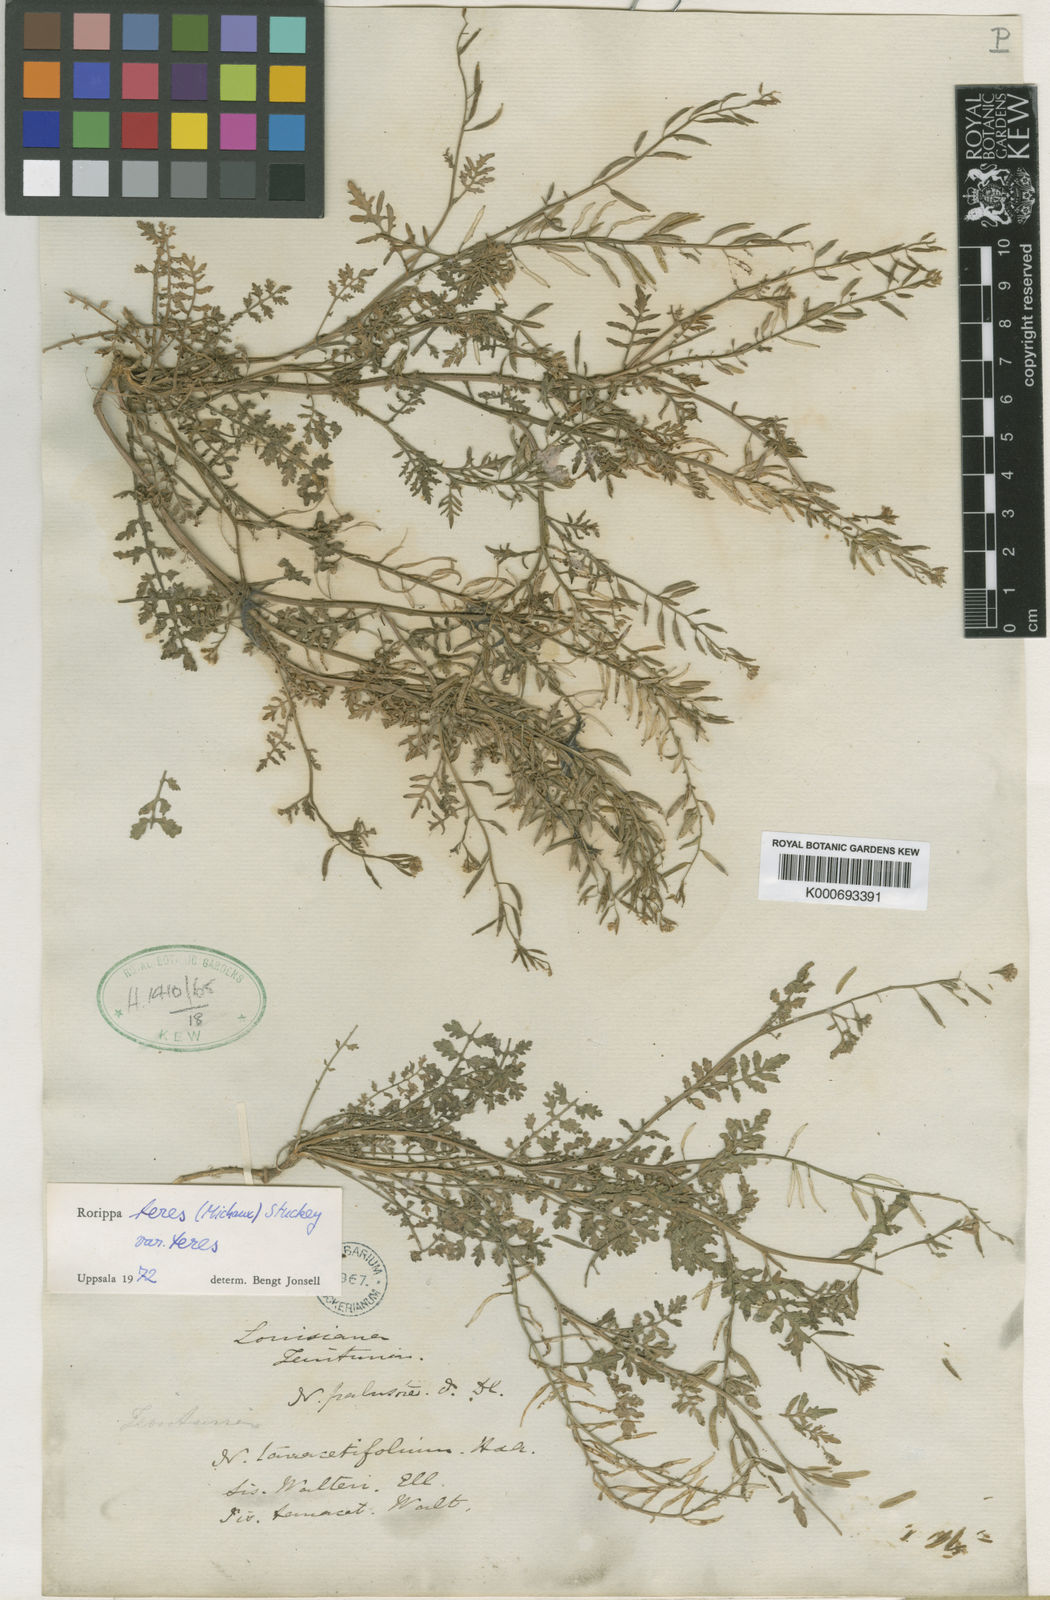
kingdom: Plantae
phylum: Tracheophyta
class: Magnoliopsida
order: Brassicales
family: Brassicaceae
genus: Rorippa
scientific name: Rorippa teres
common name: Southern marsh yellowcress
